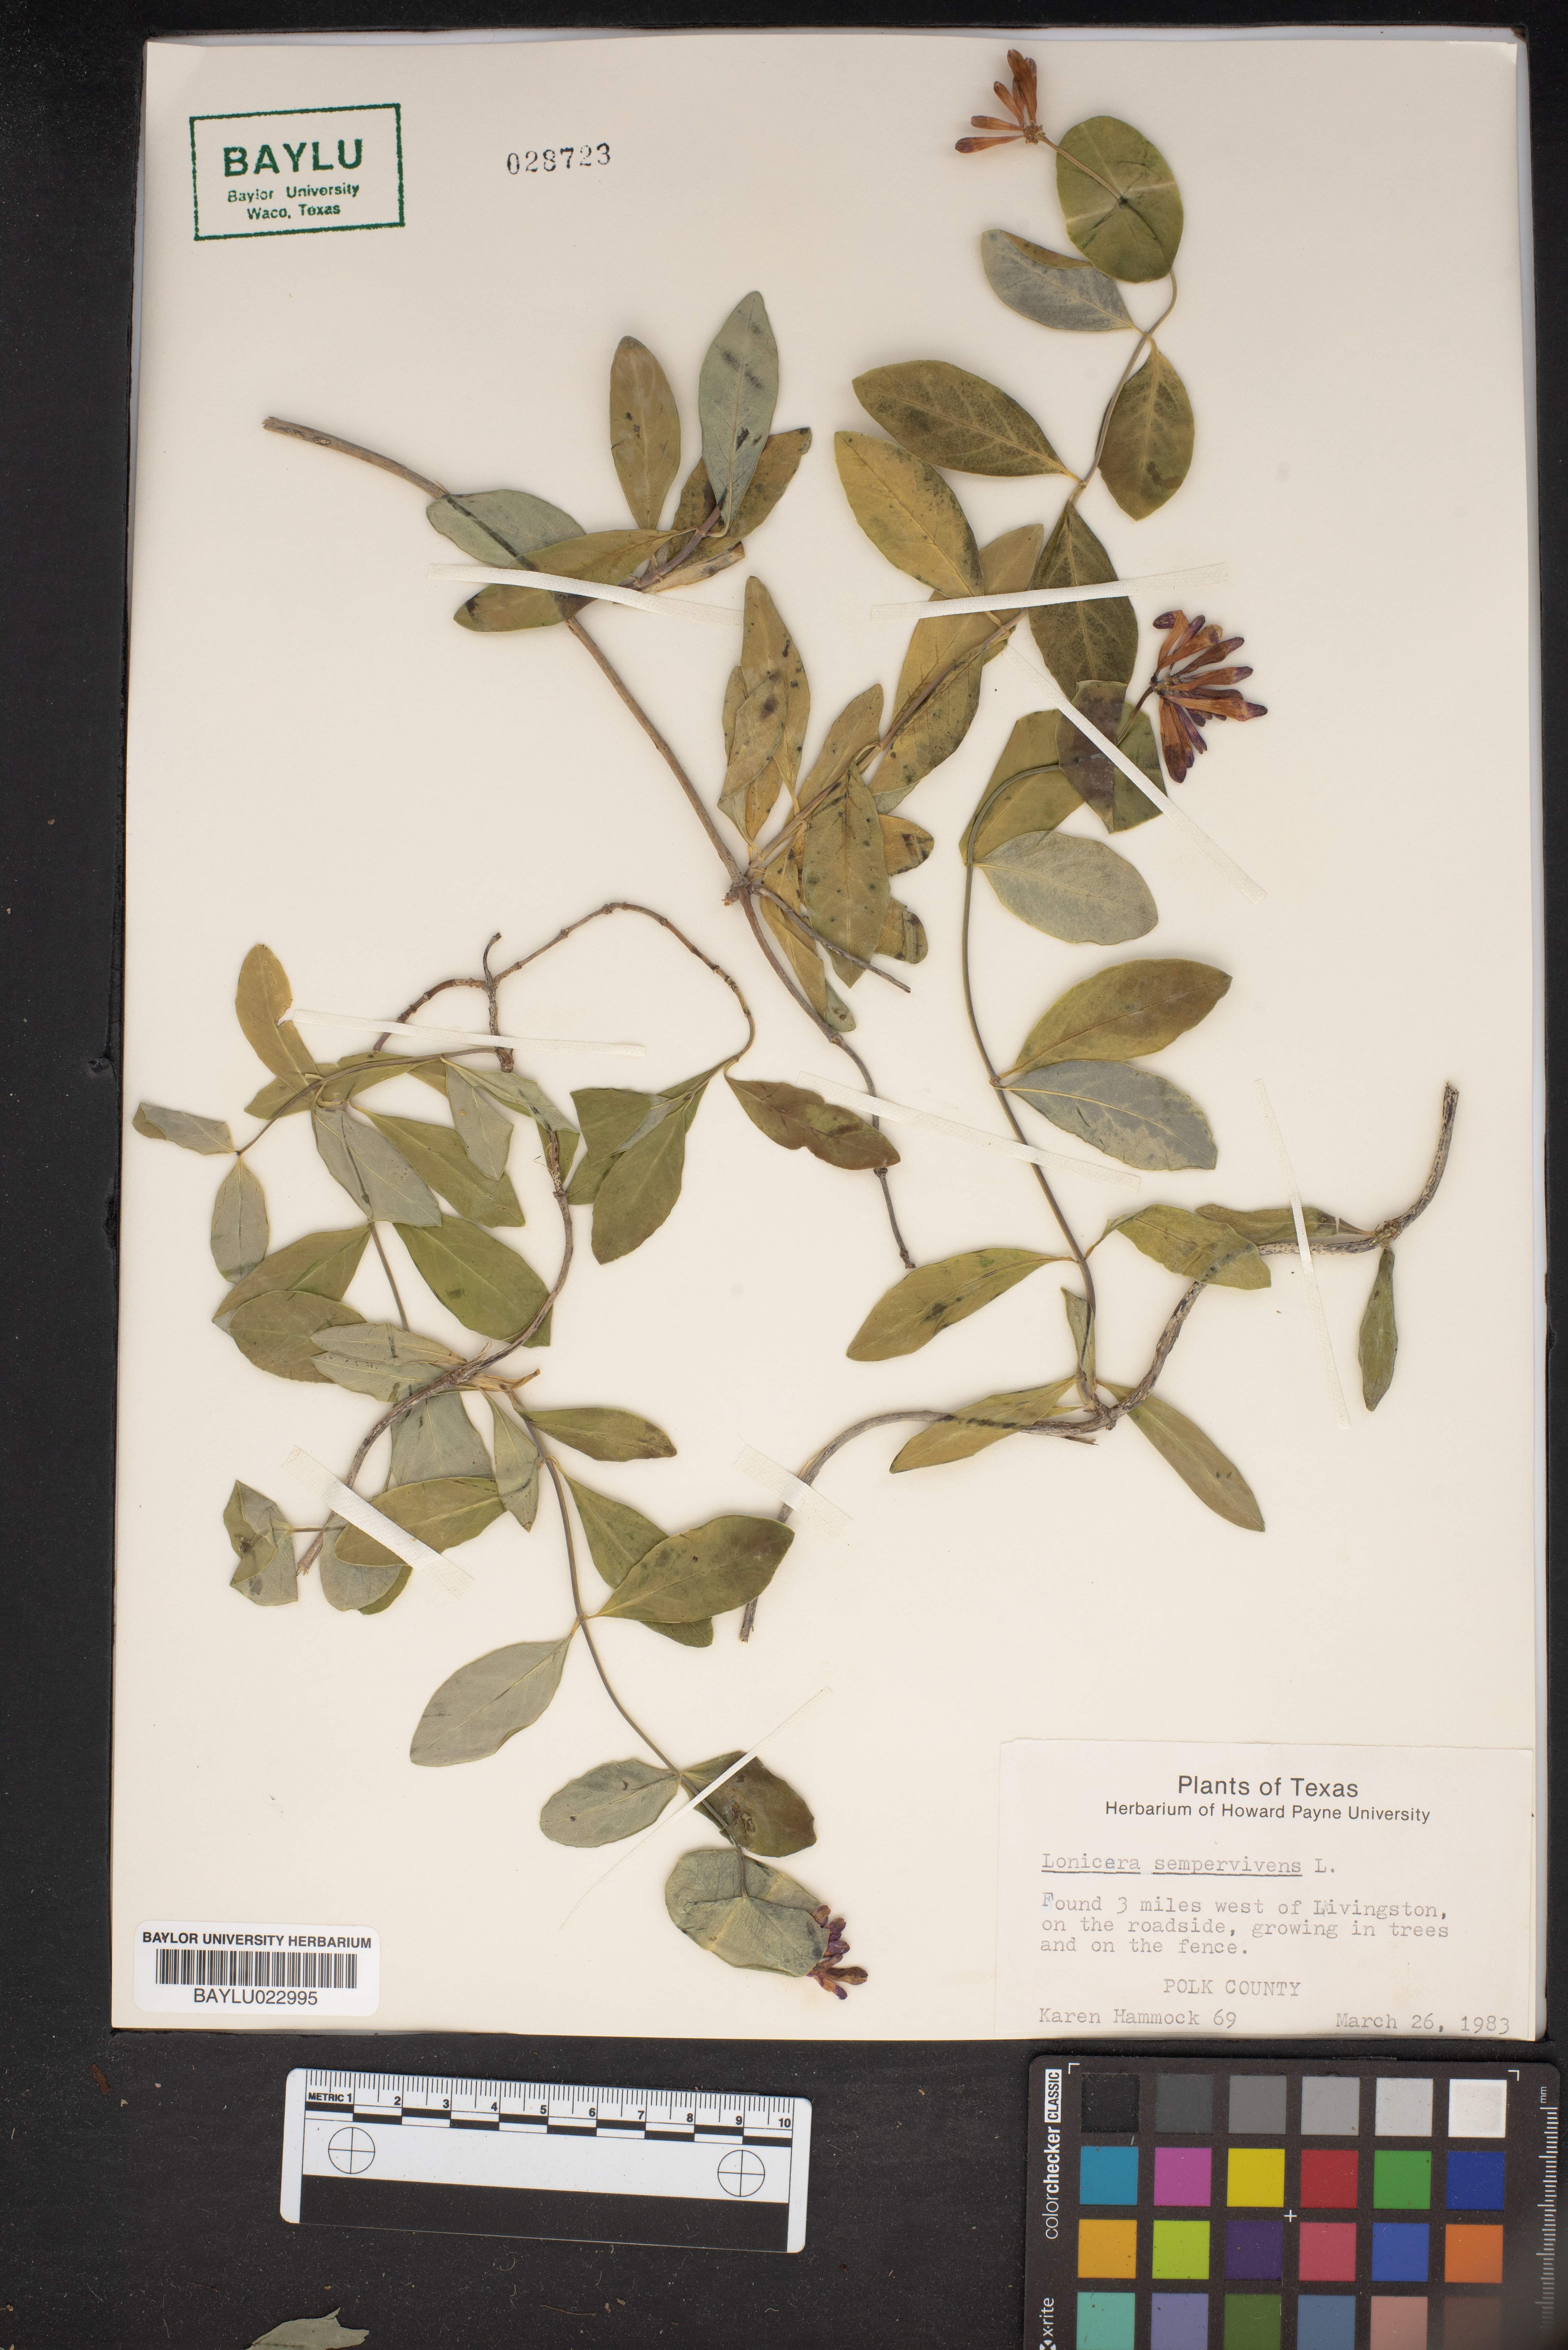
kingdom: Plantae
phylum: Tracheophyta
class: Magnoliopsida
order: Dipsacales
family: Caprifoliaceae
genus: Lonicera
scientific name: Lonicera sempervirens
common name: Coral honeysuckle
